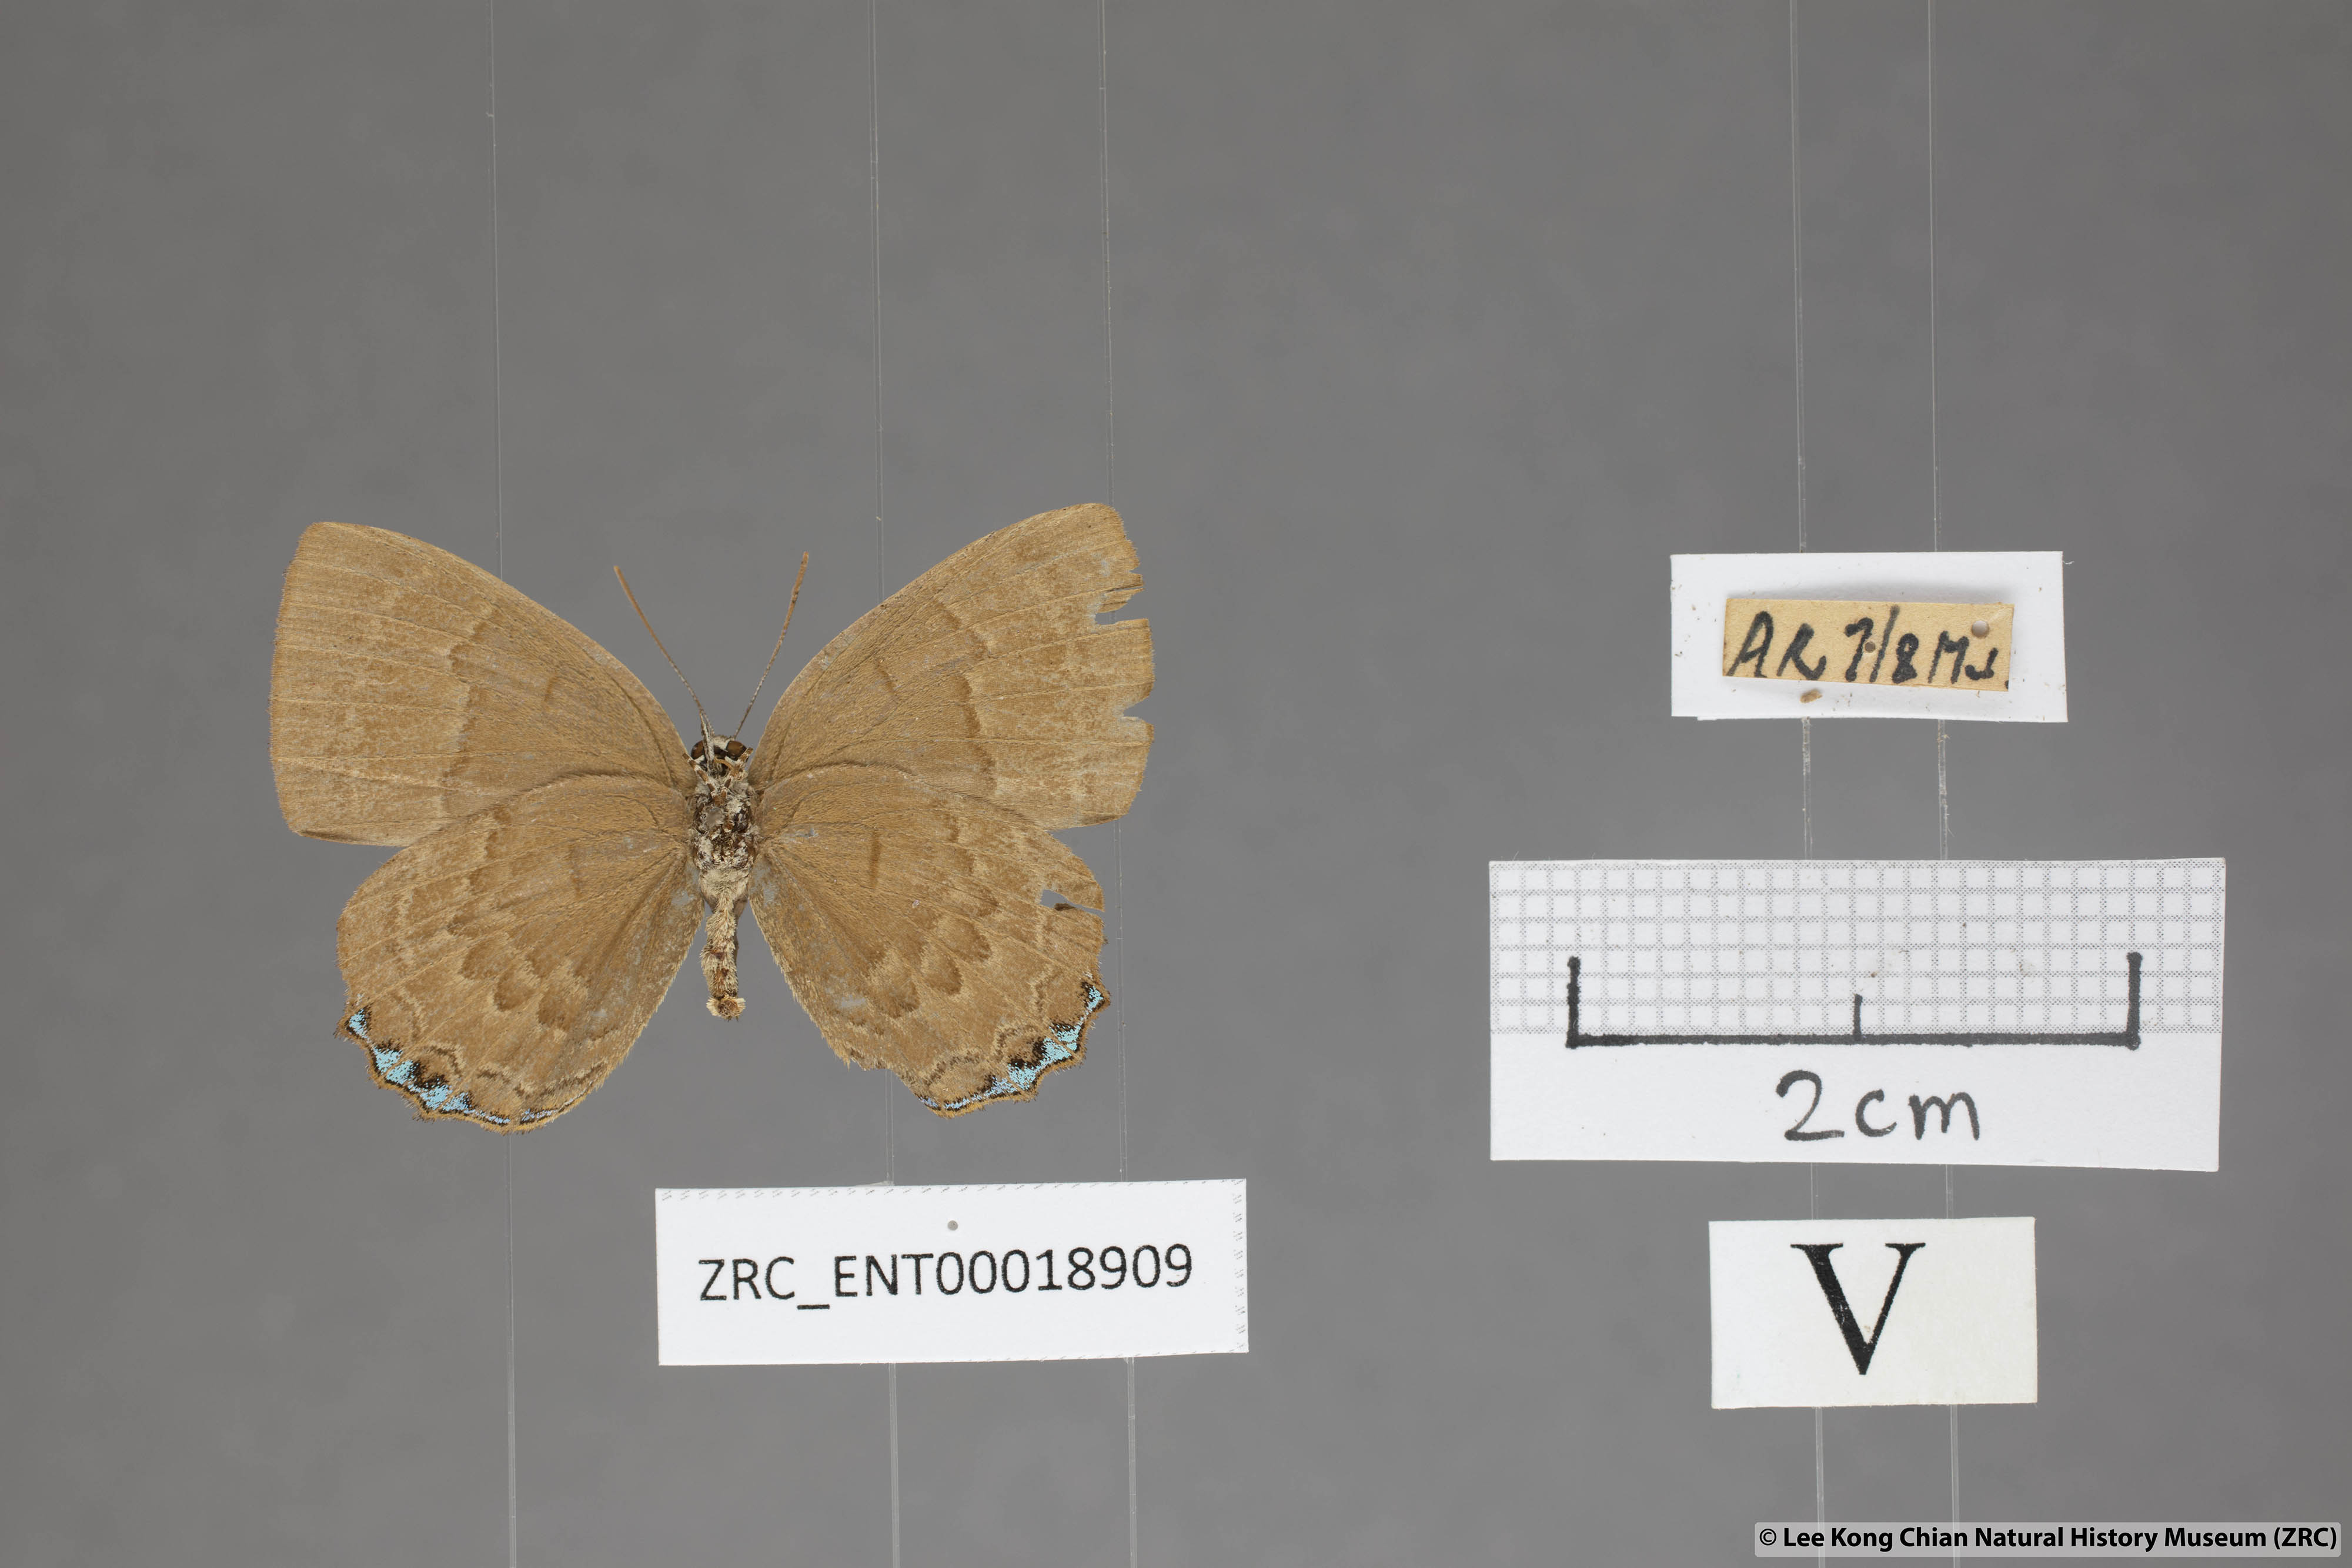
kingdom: Animalia
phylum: Arthropoda
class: Insecta
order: Lepidoptera
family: Lycaenidae
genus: Simiskina
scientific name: Simiskina
